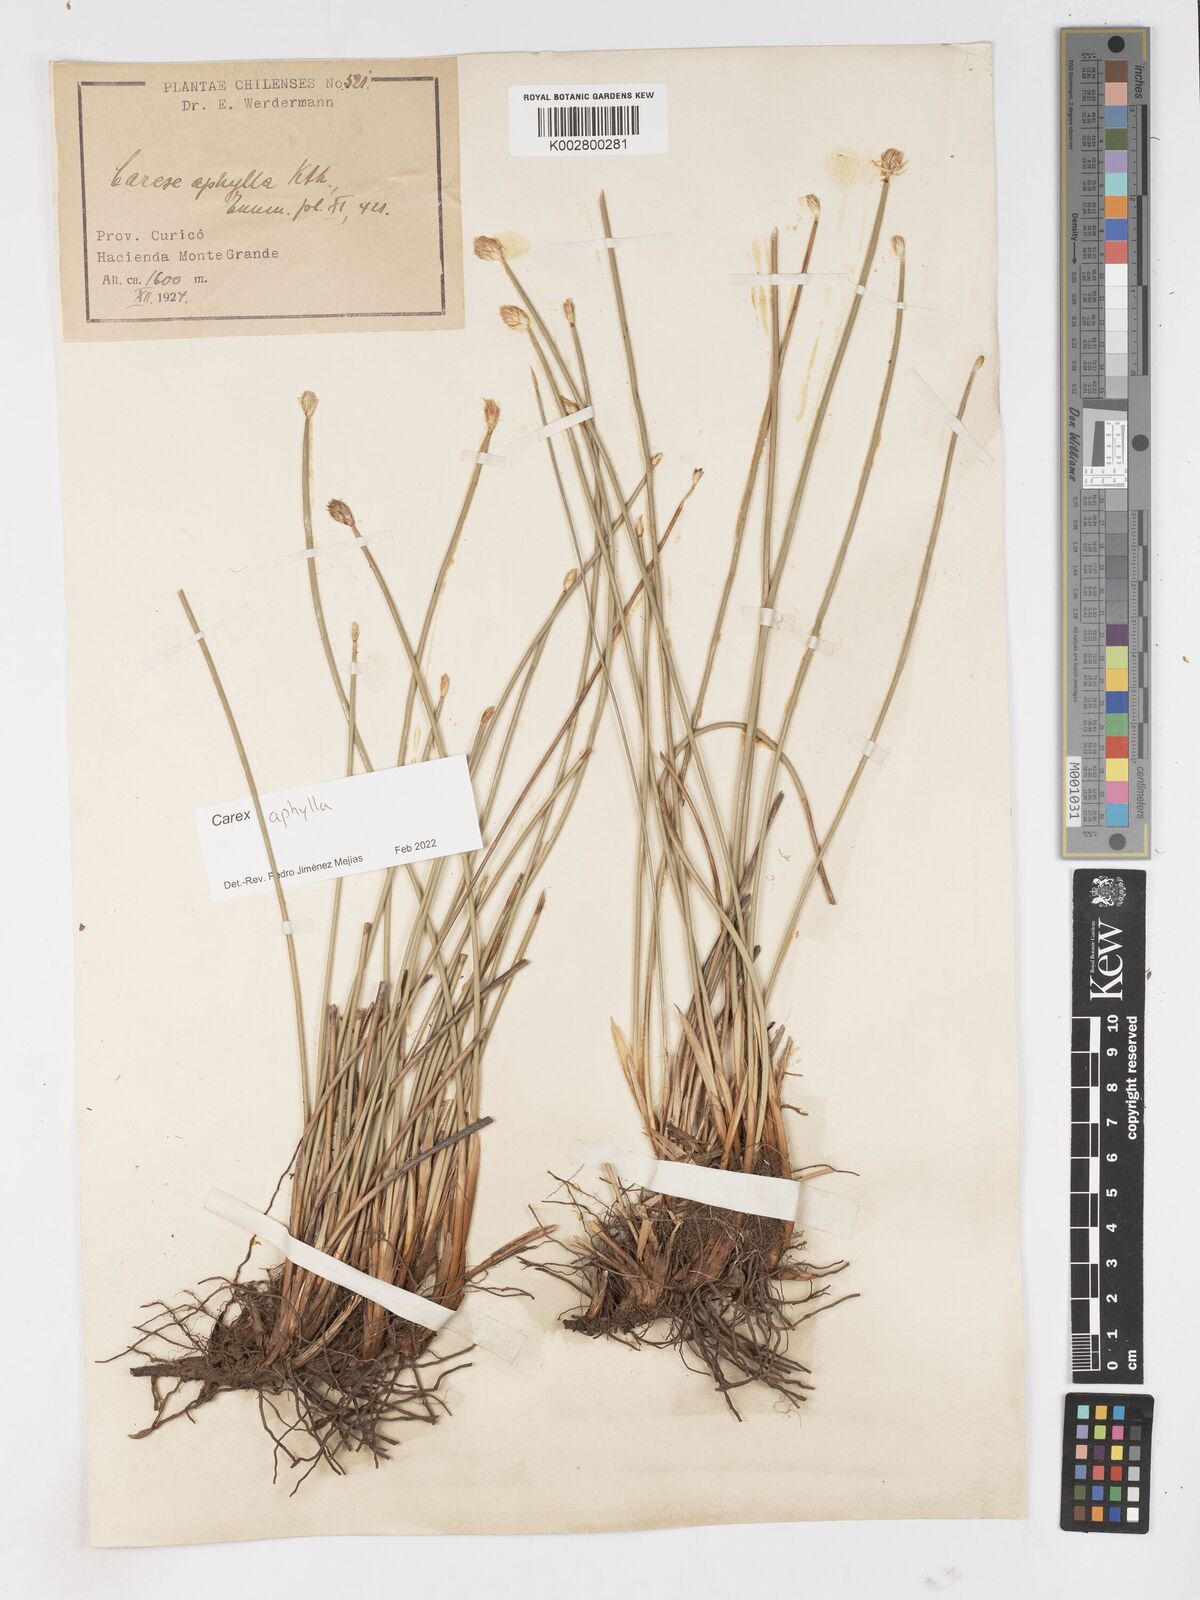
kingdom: Plantae
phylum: Tracheophyta
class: Liliopsida
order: Poales
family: Cyperaceae
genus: Carex
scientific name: Carex aphylla
